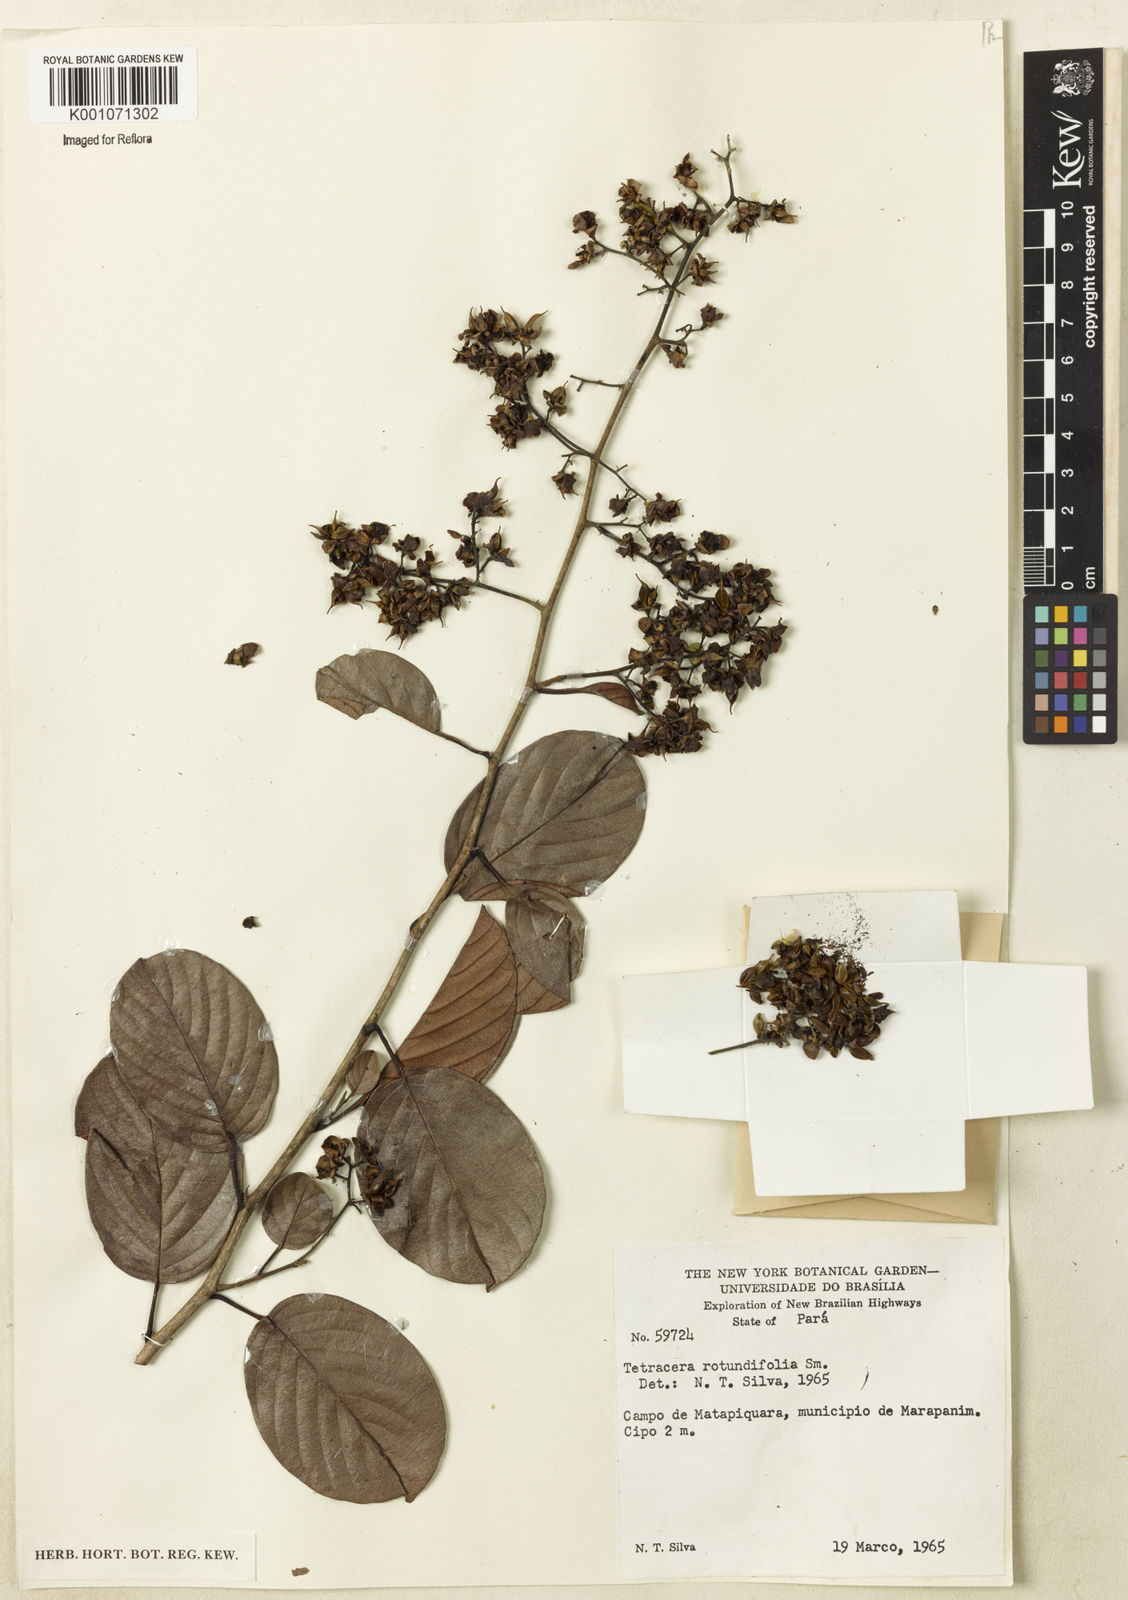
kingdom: Plantae
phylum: Tracheophyta
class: Magnoliopsida
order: Dilleniales
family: Dilleniaceae
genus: Tetracera
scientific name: Tetracera rotundifolia
